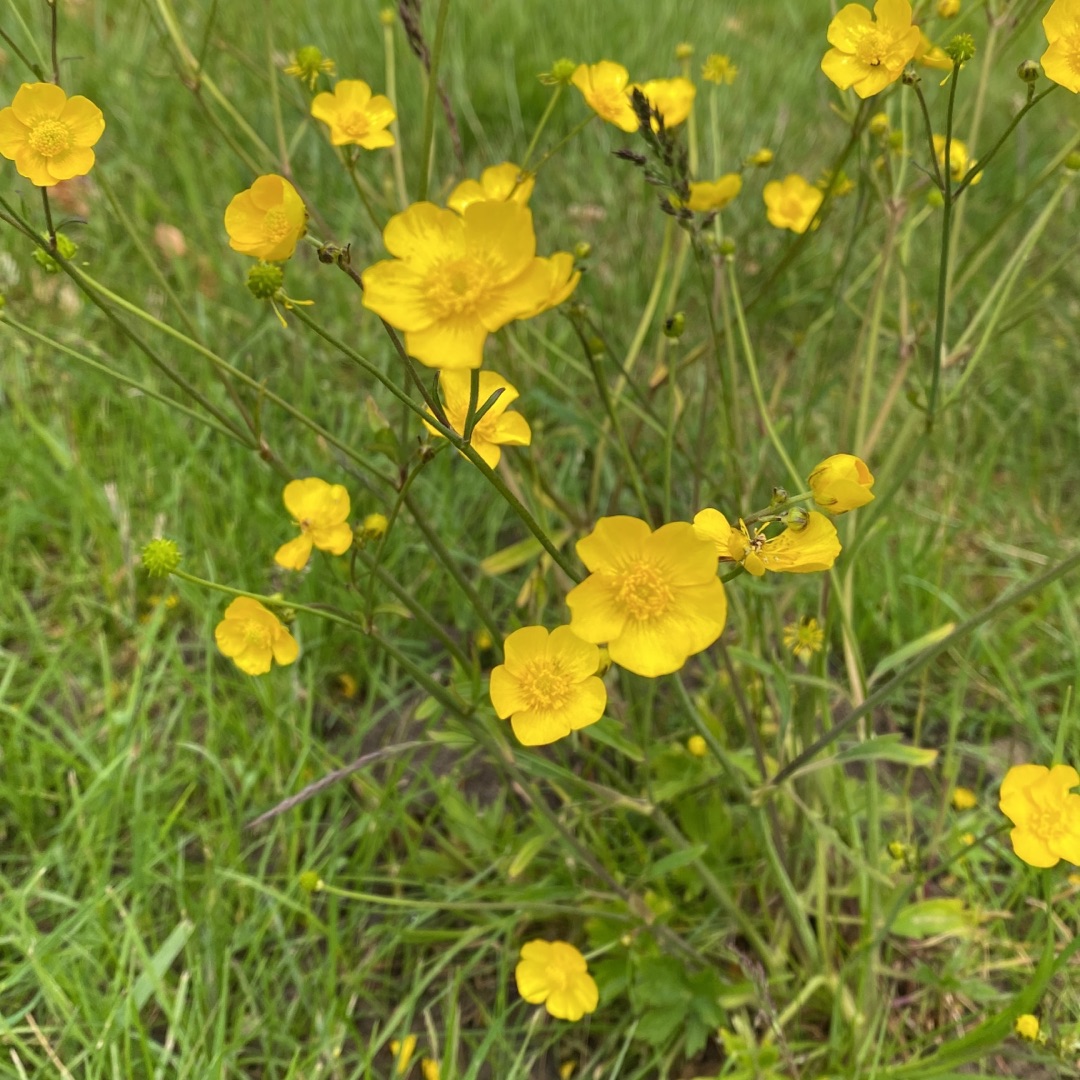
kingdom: Plantae
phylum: Tracheophyta
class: Magnoliopsida
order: Ranunculales
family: Ranunculaceae
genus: Ranunculus
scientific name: Ranunculus acris
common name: Bidende ranunkel
